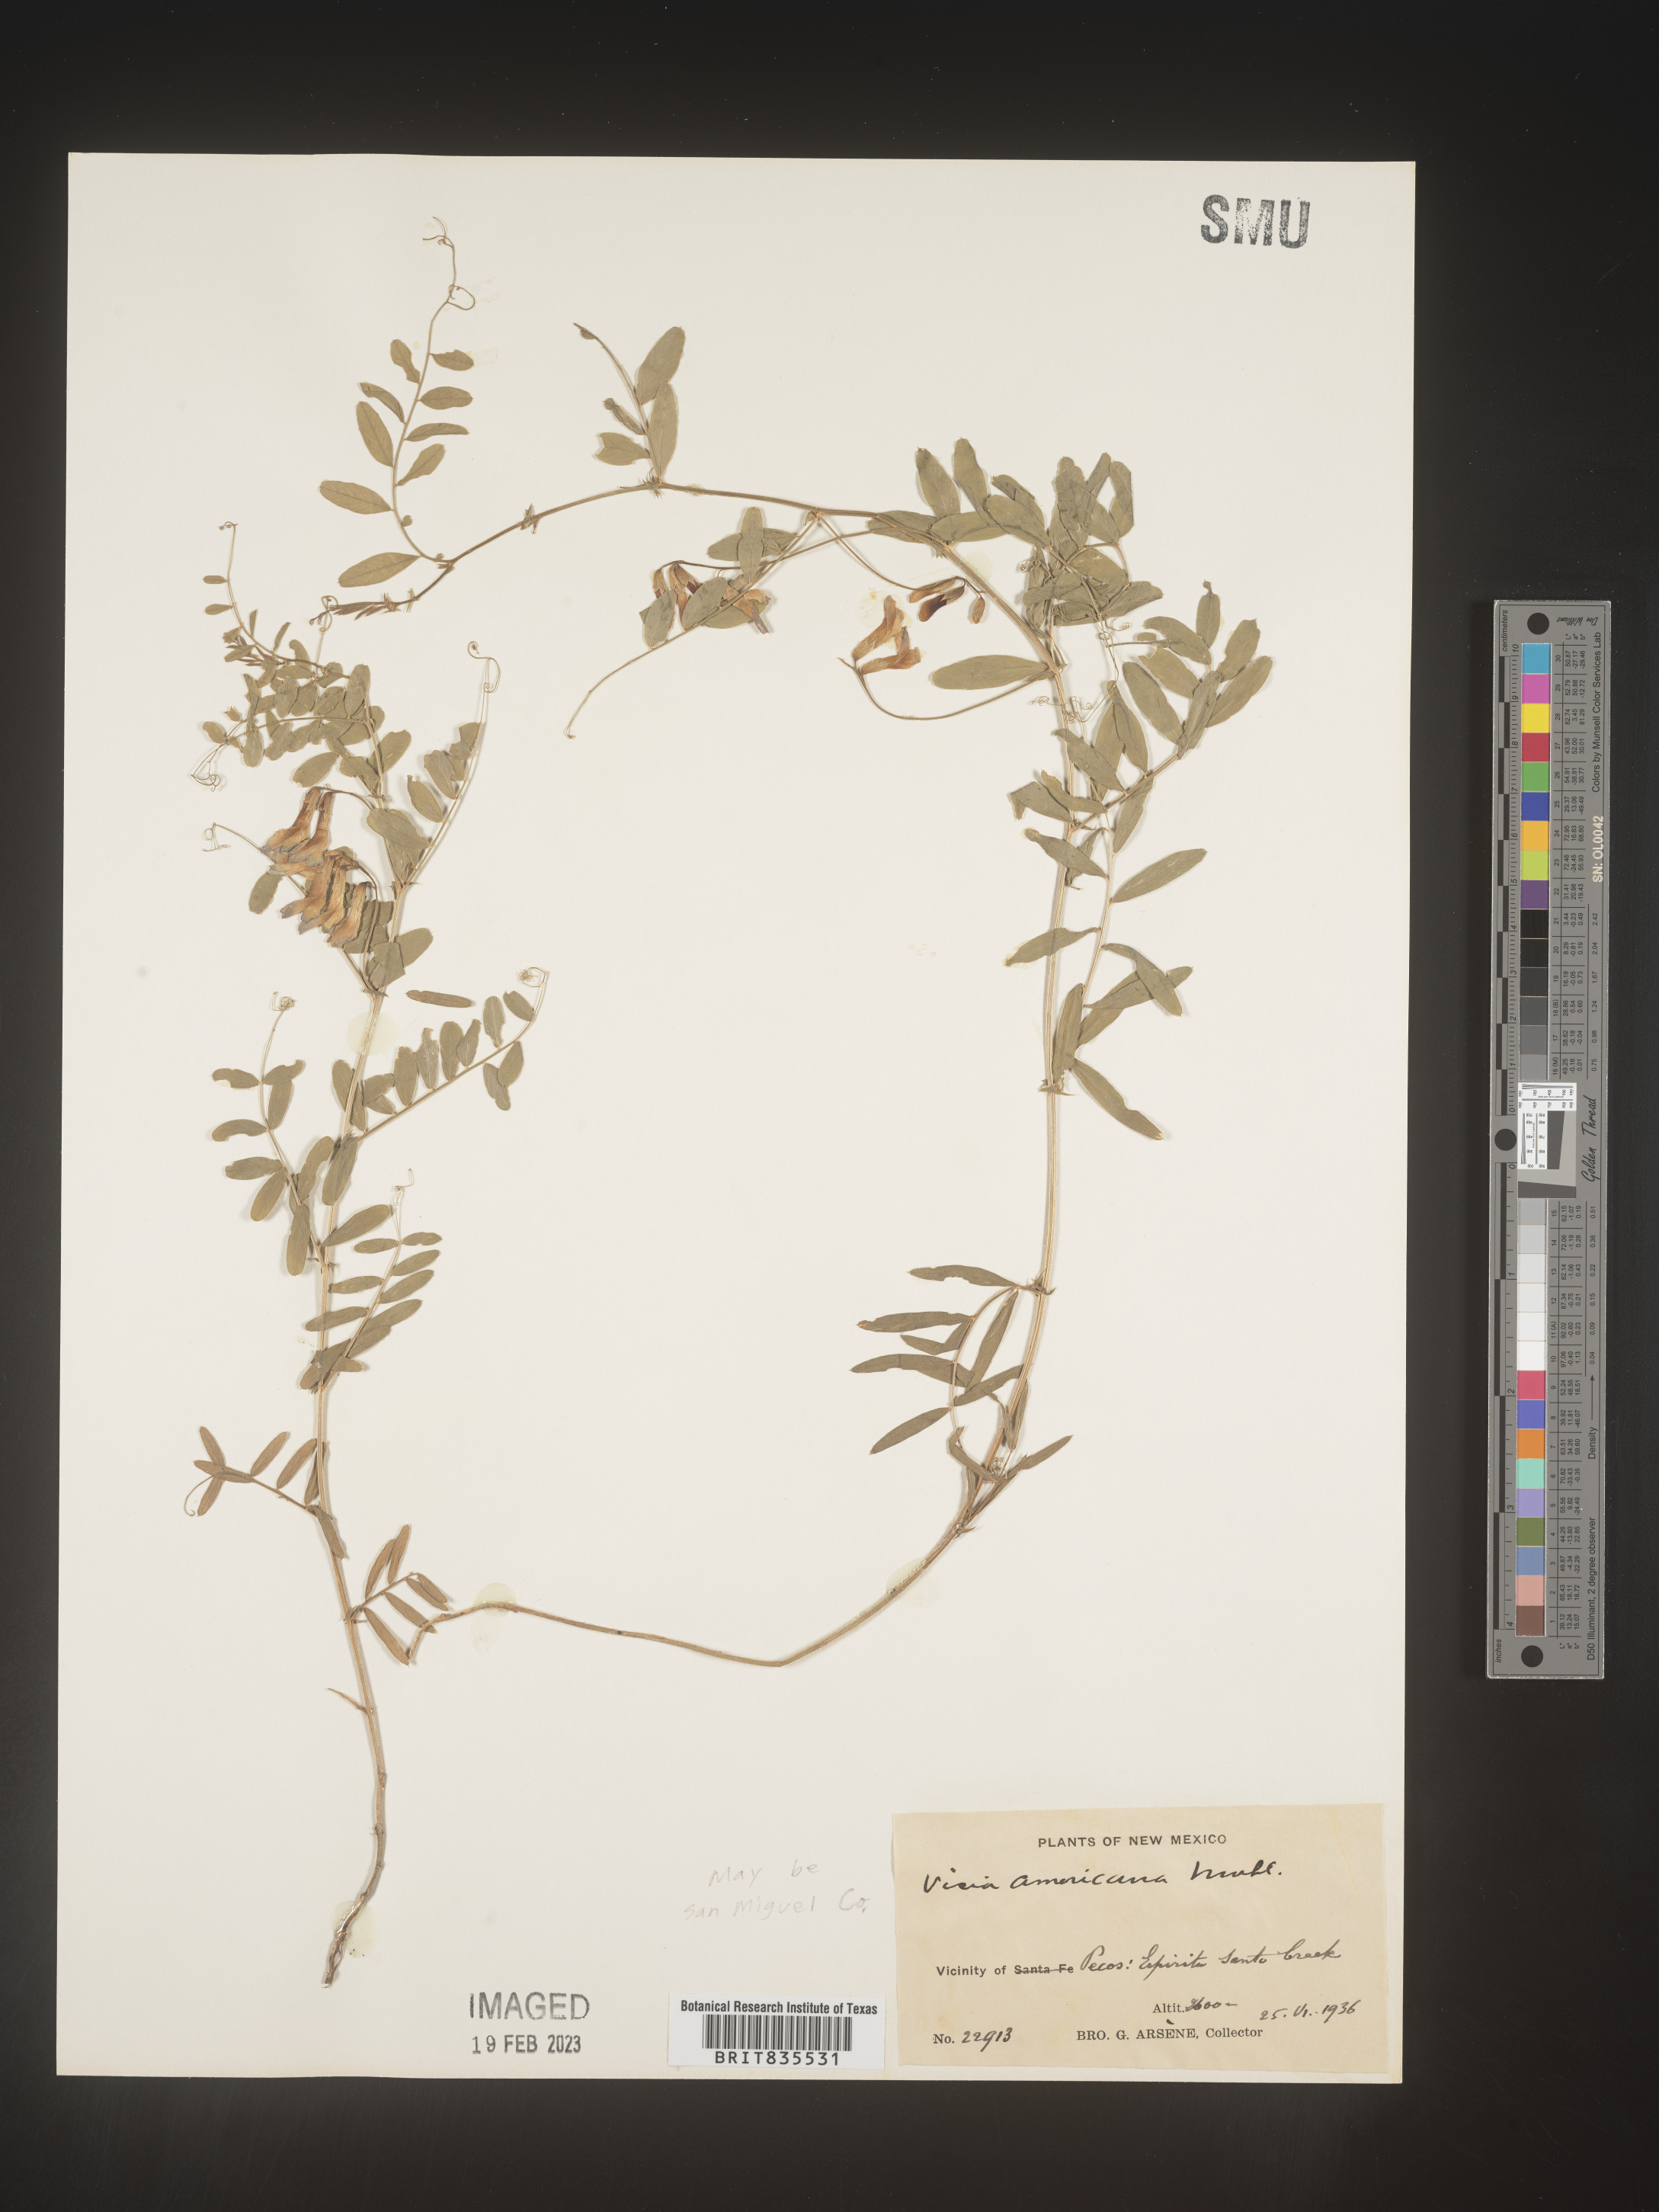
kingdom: Plantae
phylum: Tracheophyta
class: Magnoliopsida
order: Fabales
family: Fabaceae
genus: Vicia
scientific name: Vicia americana
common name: American vetch
